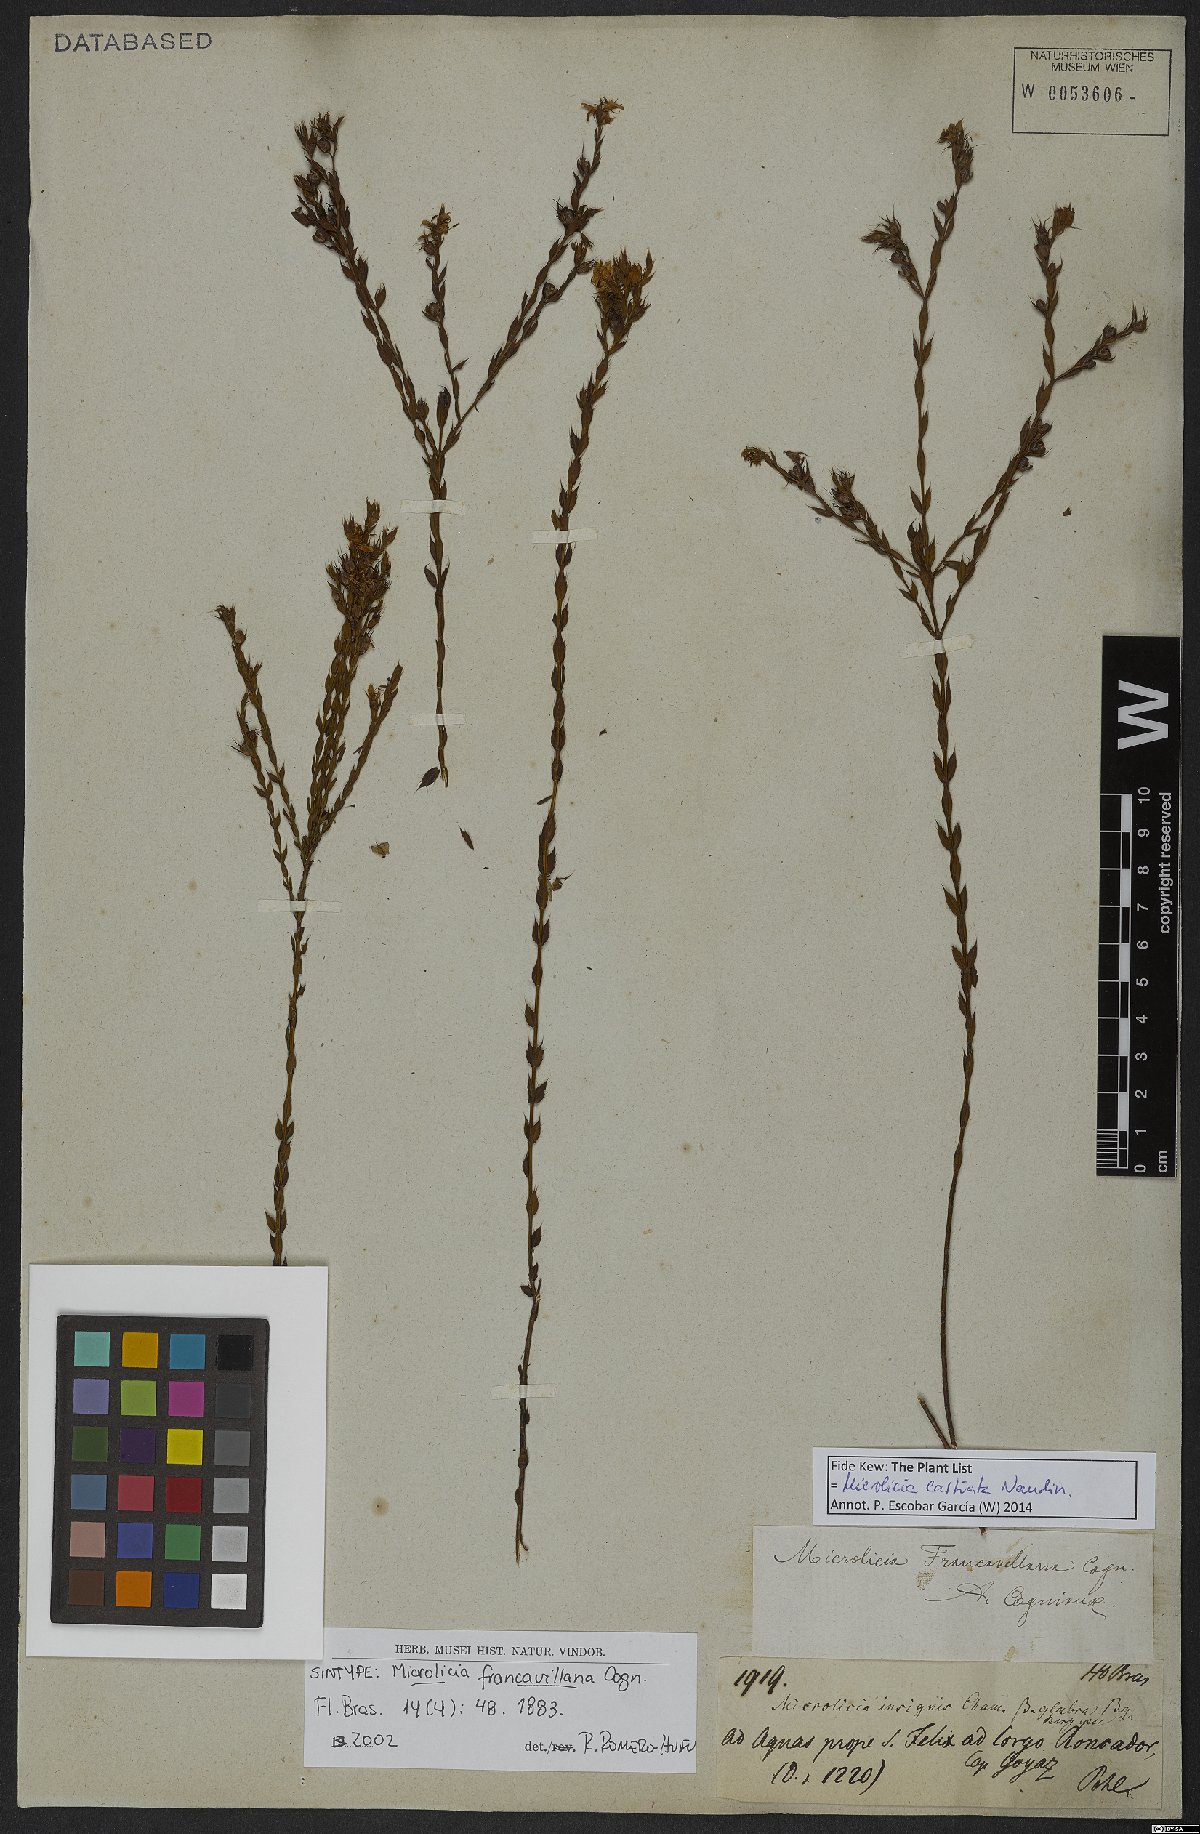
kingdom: Plantae
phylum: Tracheophyta
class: Magnoliopsida
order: Myrtales
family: Melastomataceae
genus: Microlicia
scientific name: Microlicia castrata
